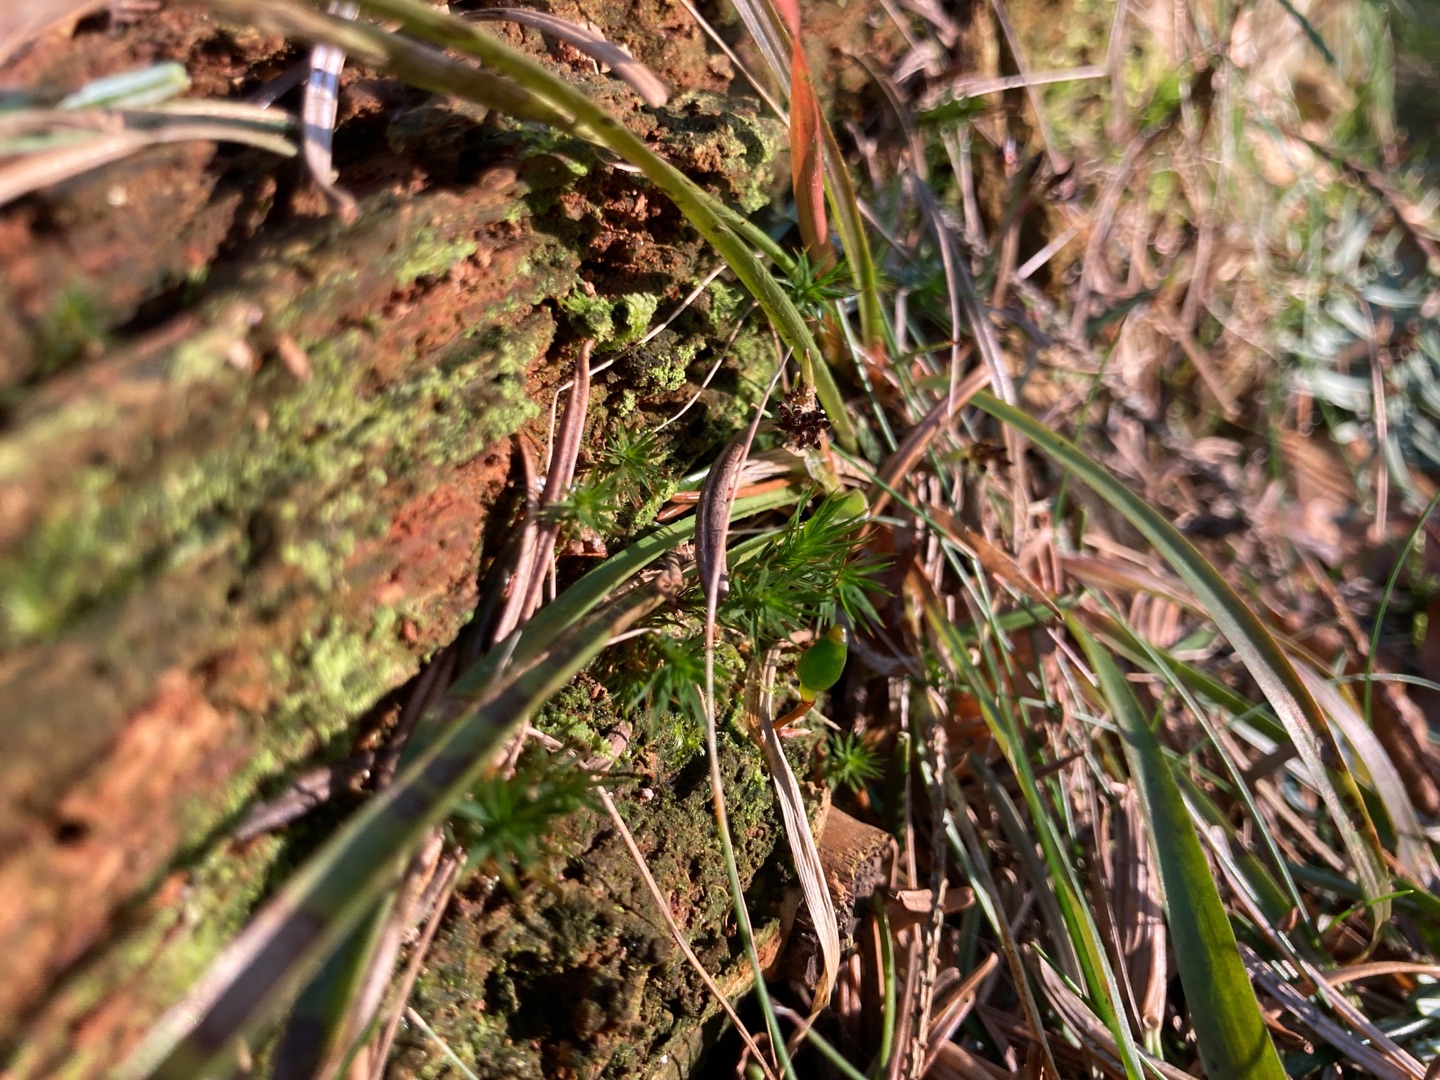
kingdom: Plantae
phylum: Bryophyta
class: Bryopsida
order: Buxbaumiales
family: Buxbaumiaceae
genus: Buxbaumia
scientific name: Buxbaumia viridis
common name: Grøn buxbaumia
